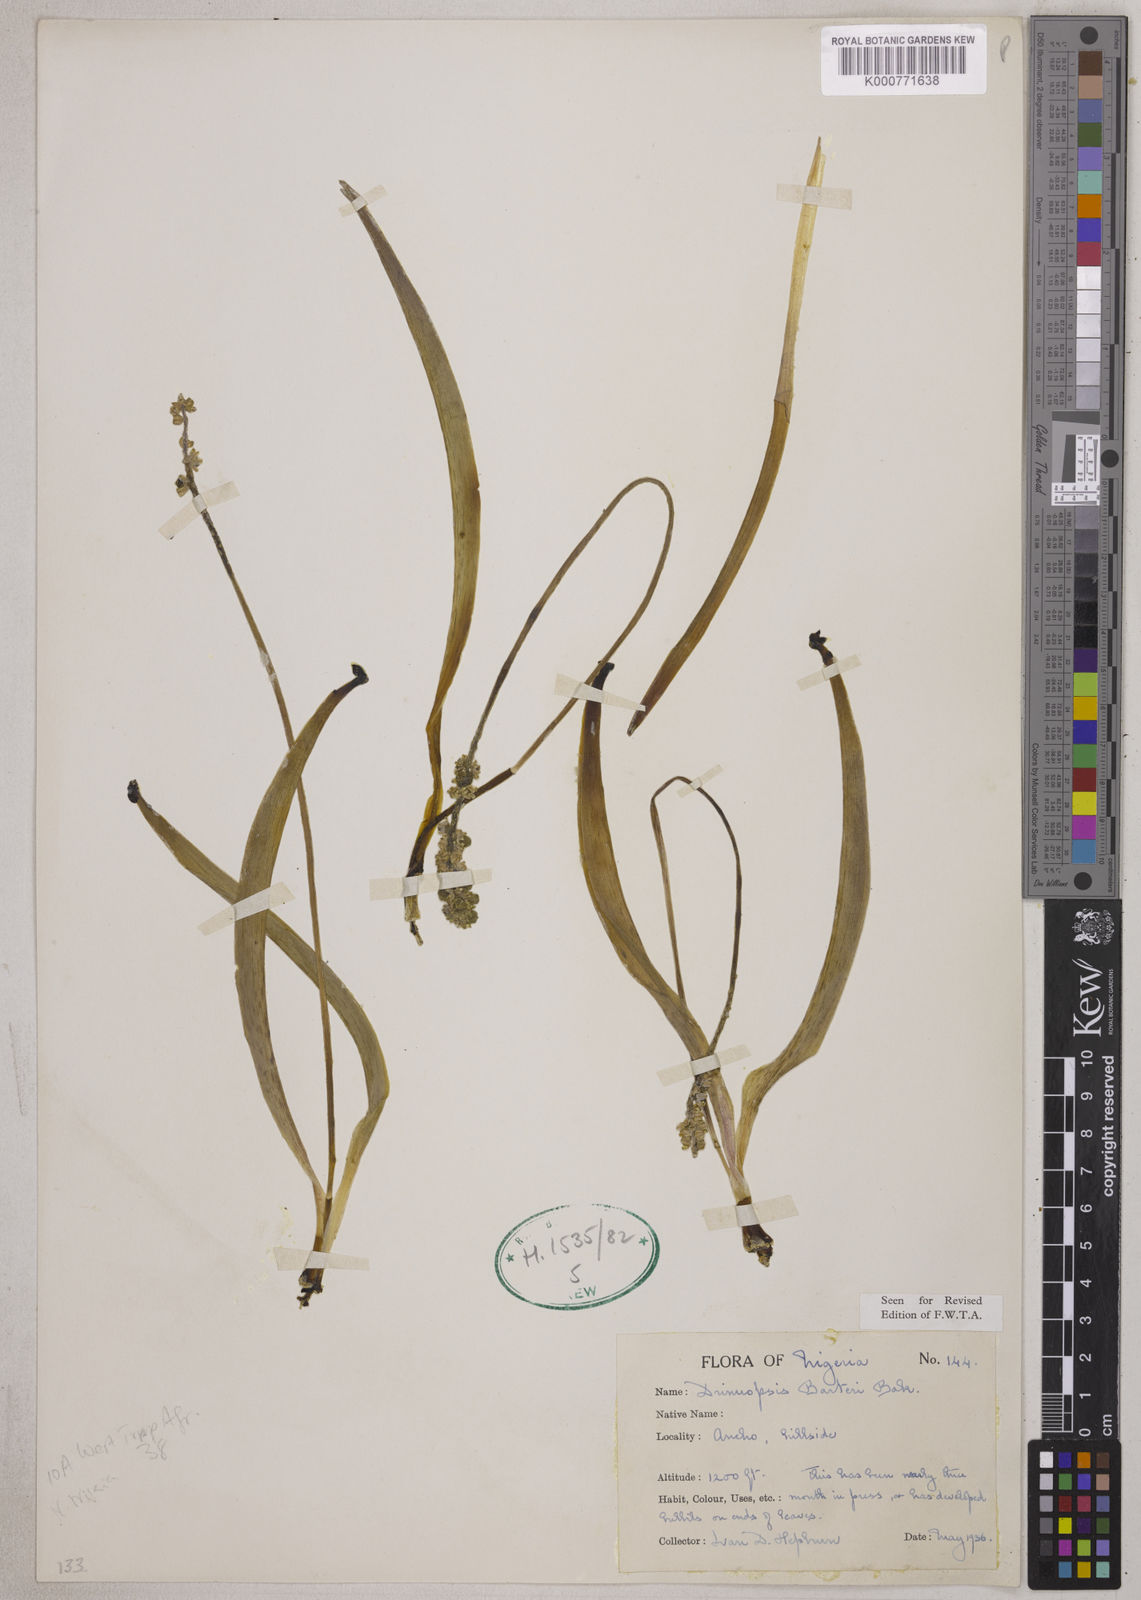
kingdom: Plantae
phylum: Tracheophyta
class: Liliopsida
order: Asparagales
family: Asparagaceae
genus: Drimiopsis
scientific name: Drimiopsis barteri
